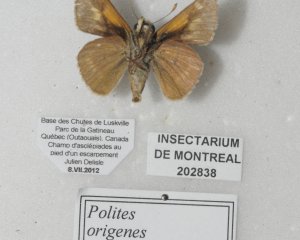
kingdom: Animalia
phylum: Arthropoda
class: Insecta
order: Lepidoptera
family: Hesperiidae
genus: Polites
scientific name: Polites
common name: Crossline Skipper
